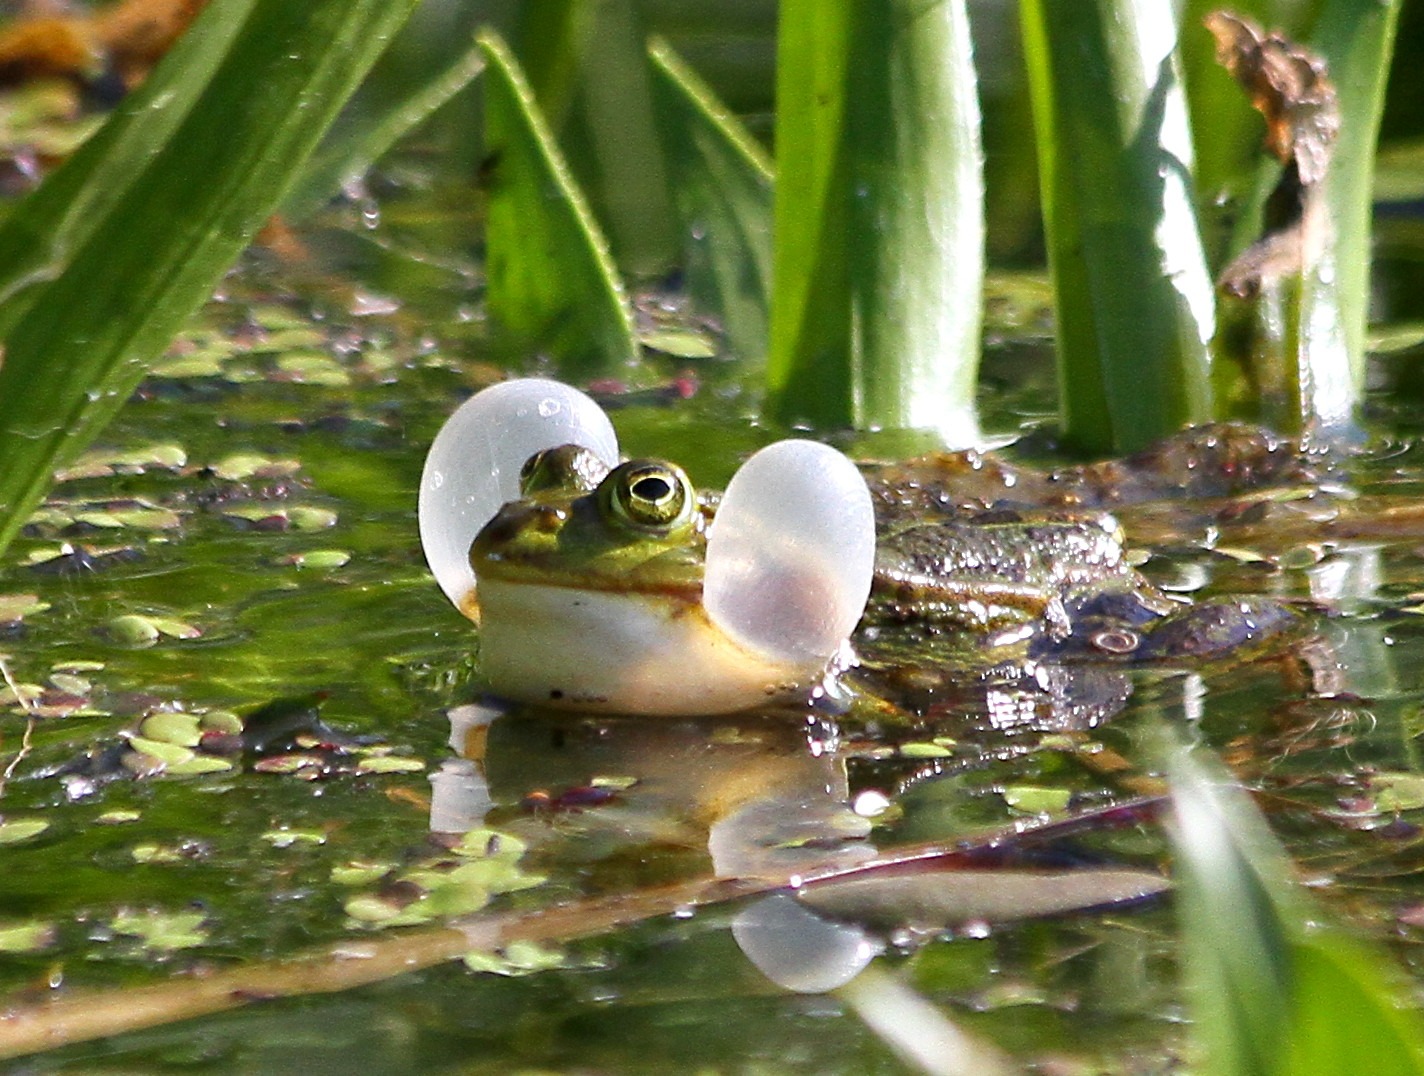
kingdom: Animalia
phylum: Chordata
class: Amphibia
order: Anura
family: Ranidae
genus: Pelophylax
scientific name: Pelophylax lessonae
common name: Grøn frø
